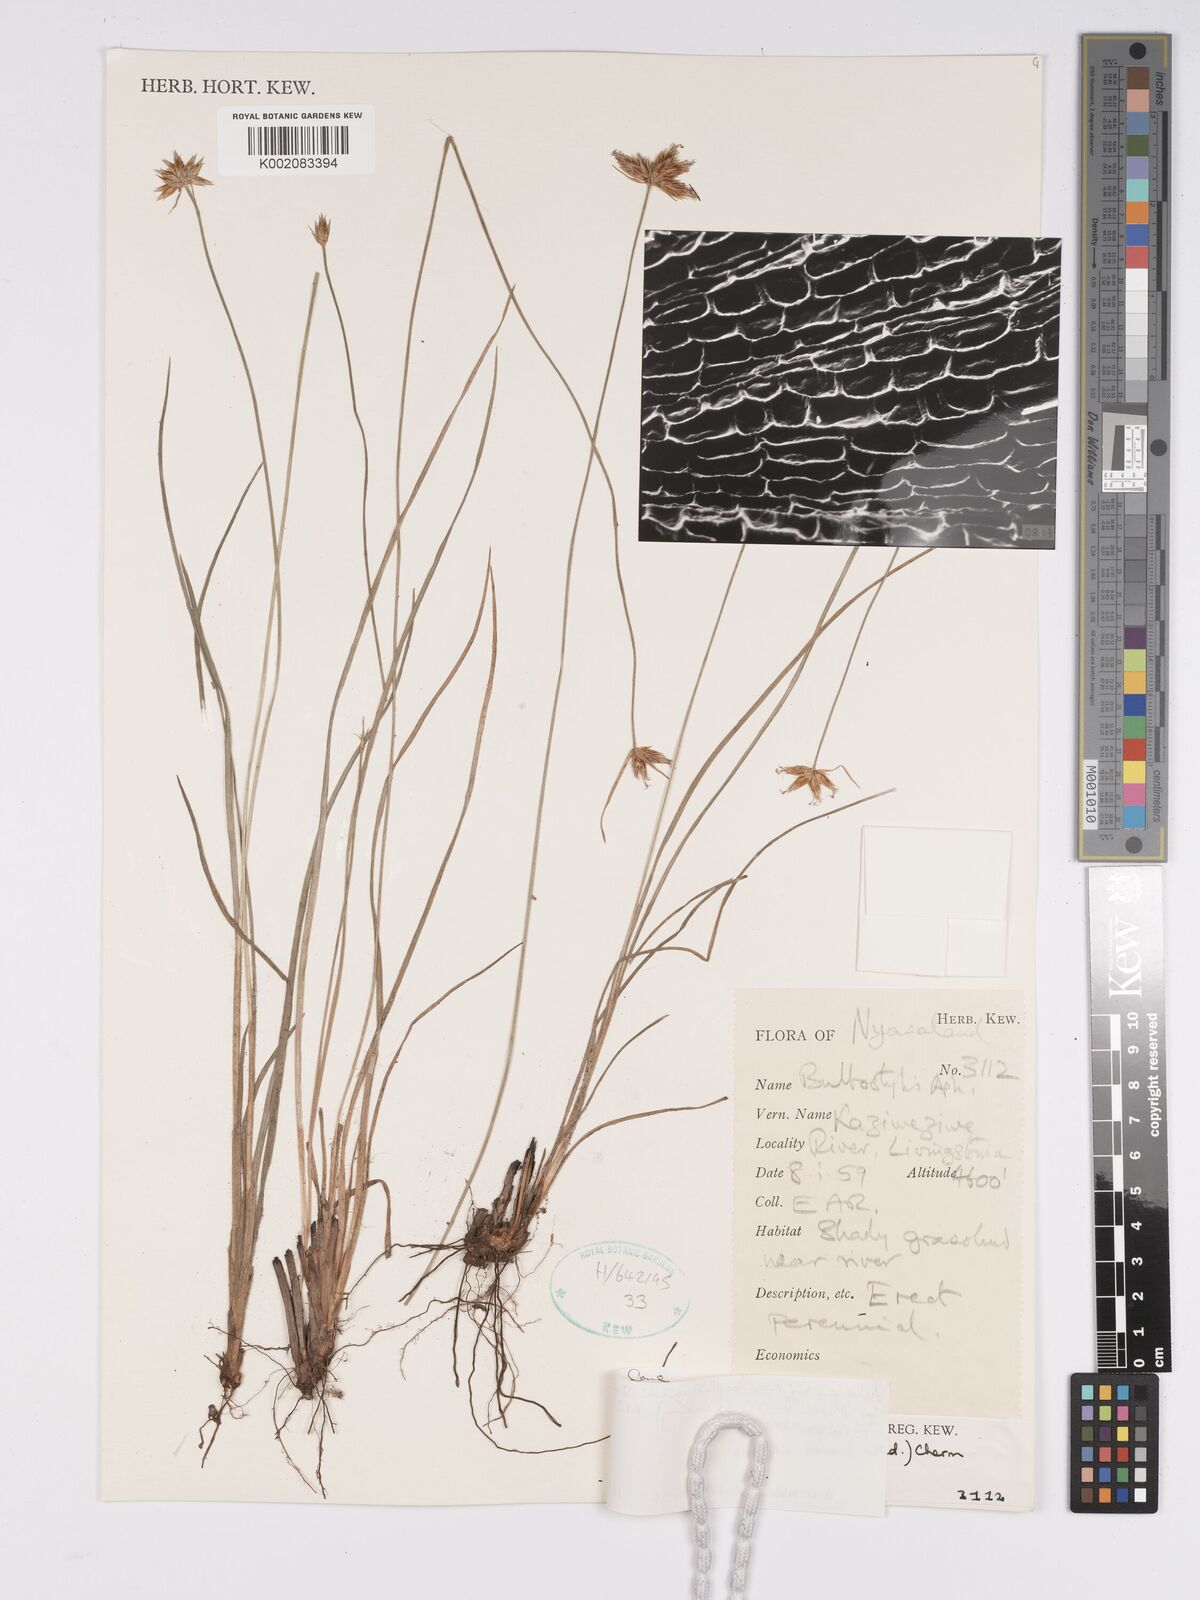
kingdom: Plantae
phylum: Tracheophyta
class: Liliopsida
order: Poales
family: Cyperaceae
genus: Bulbostylis
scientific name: Bulbostylis pilosa
